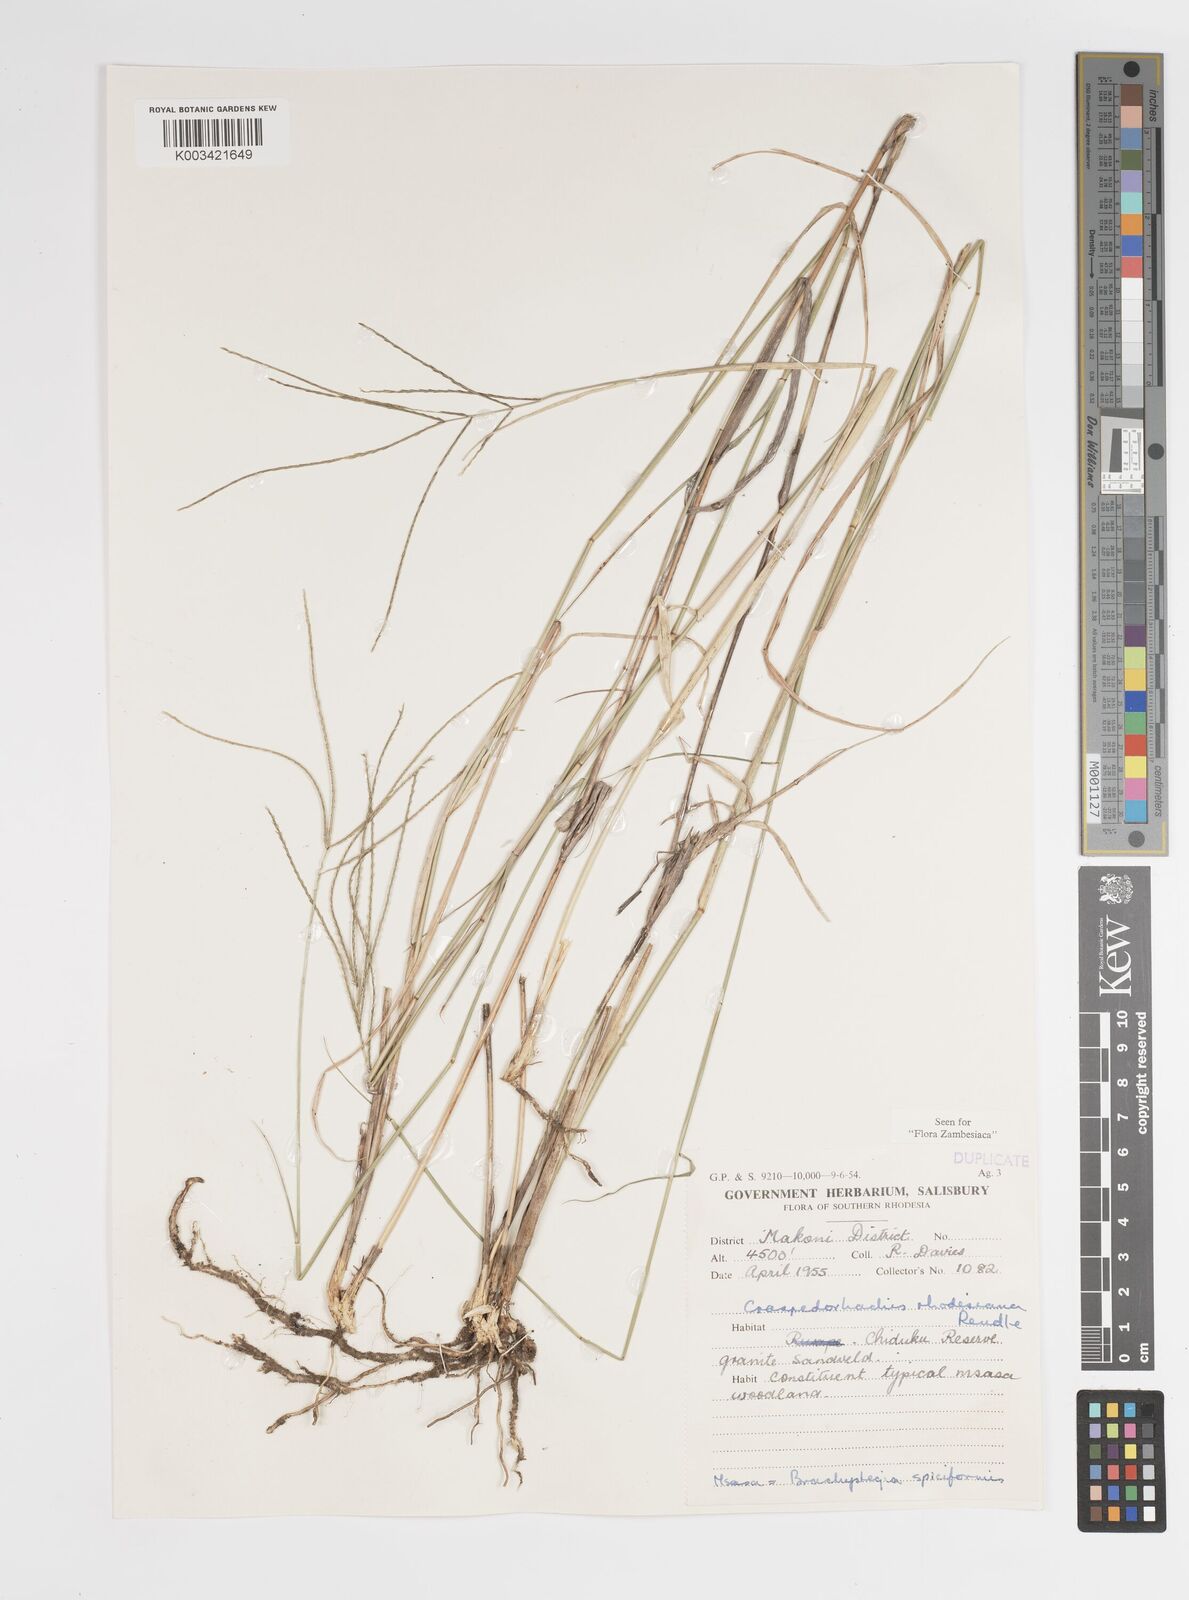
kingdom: Plantae
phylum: Tracheophyta
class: Liliopsida
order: Poales
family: Poaceae
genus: Craspedorhachis
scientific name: Craspedorhachis rhodesiana
